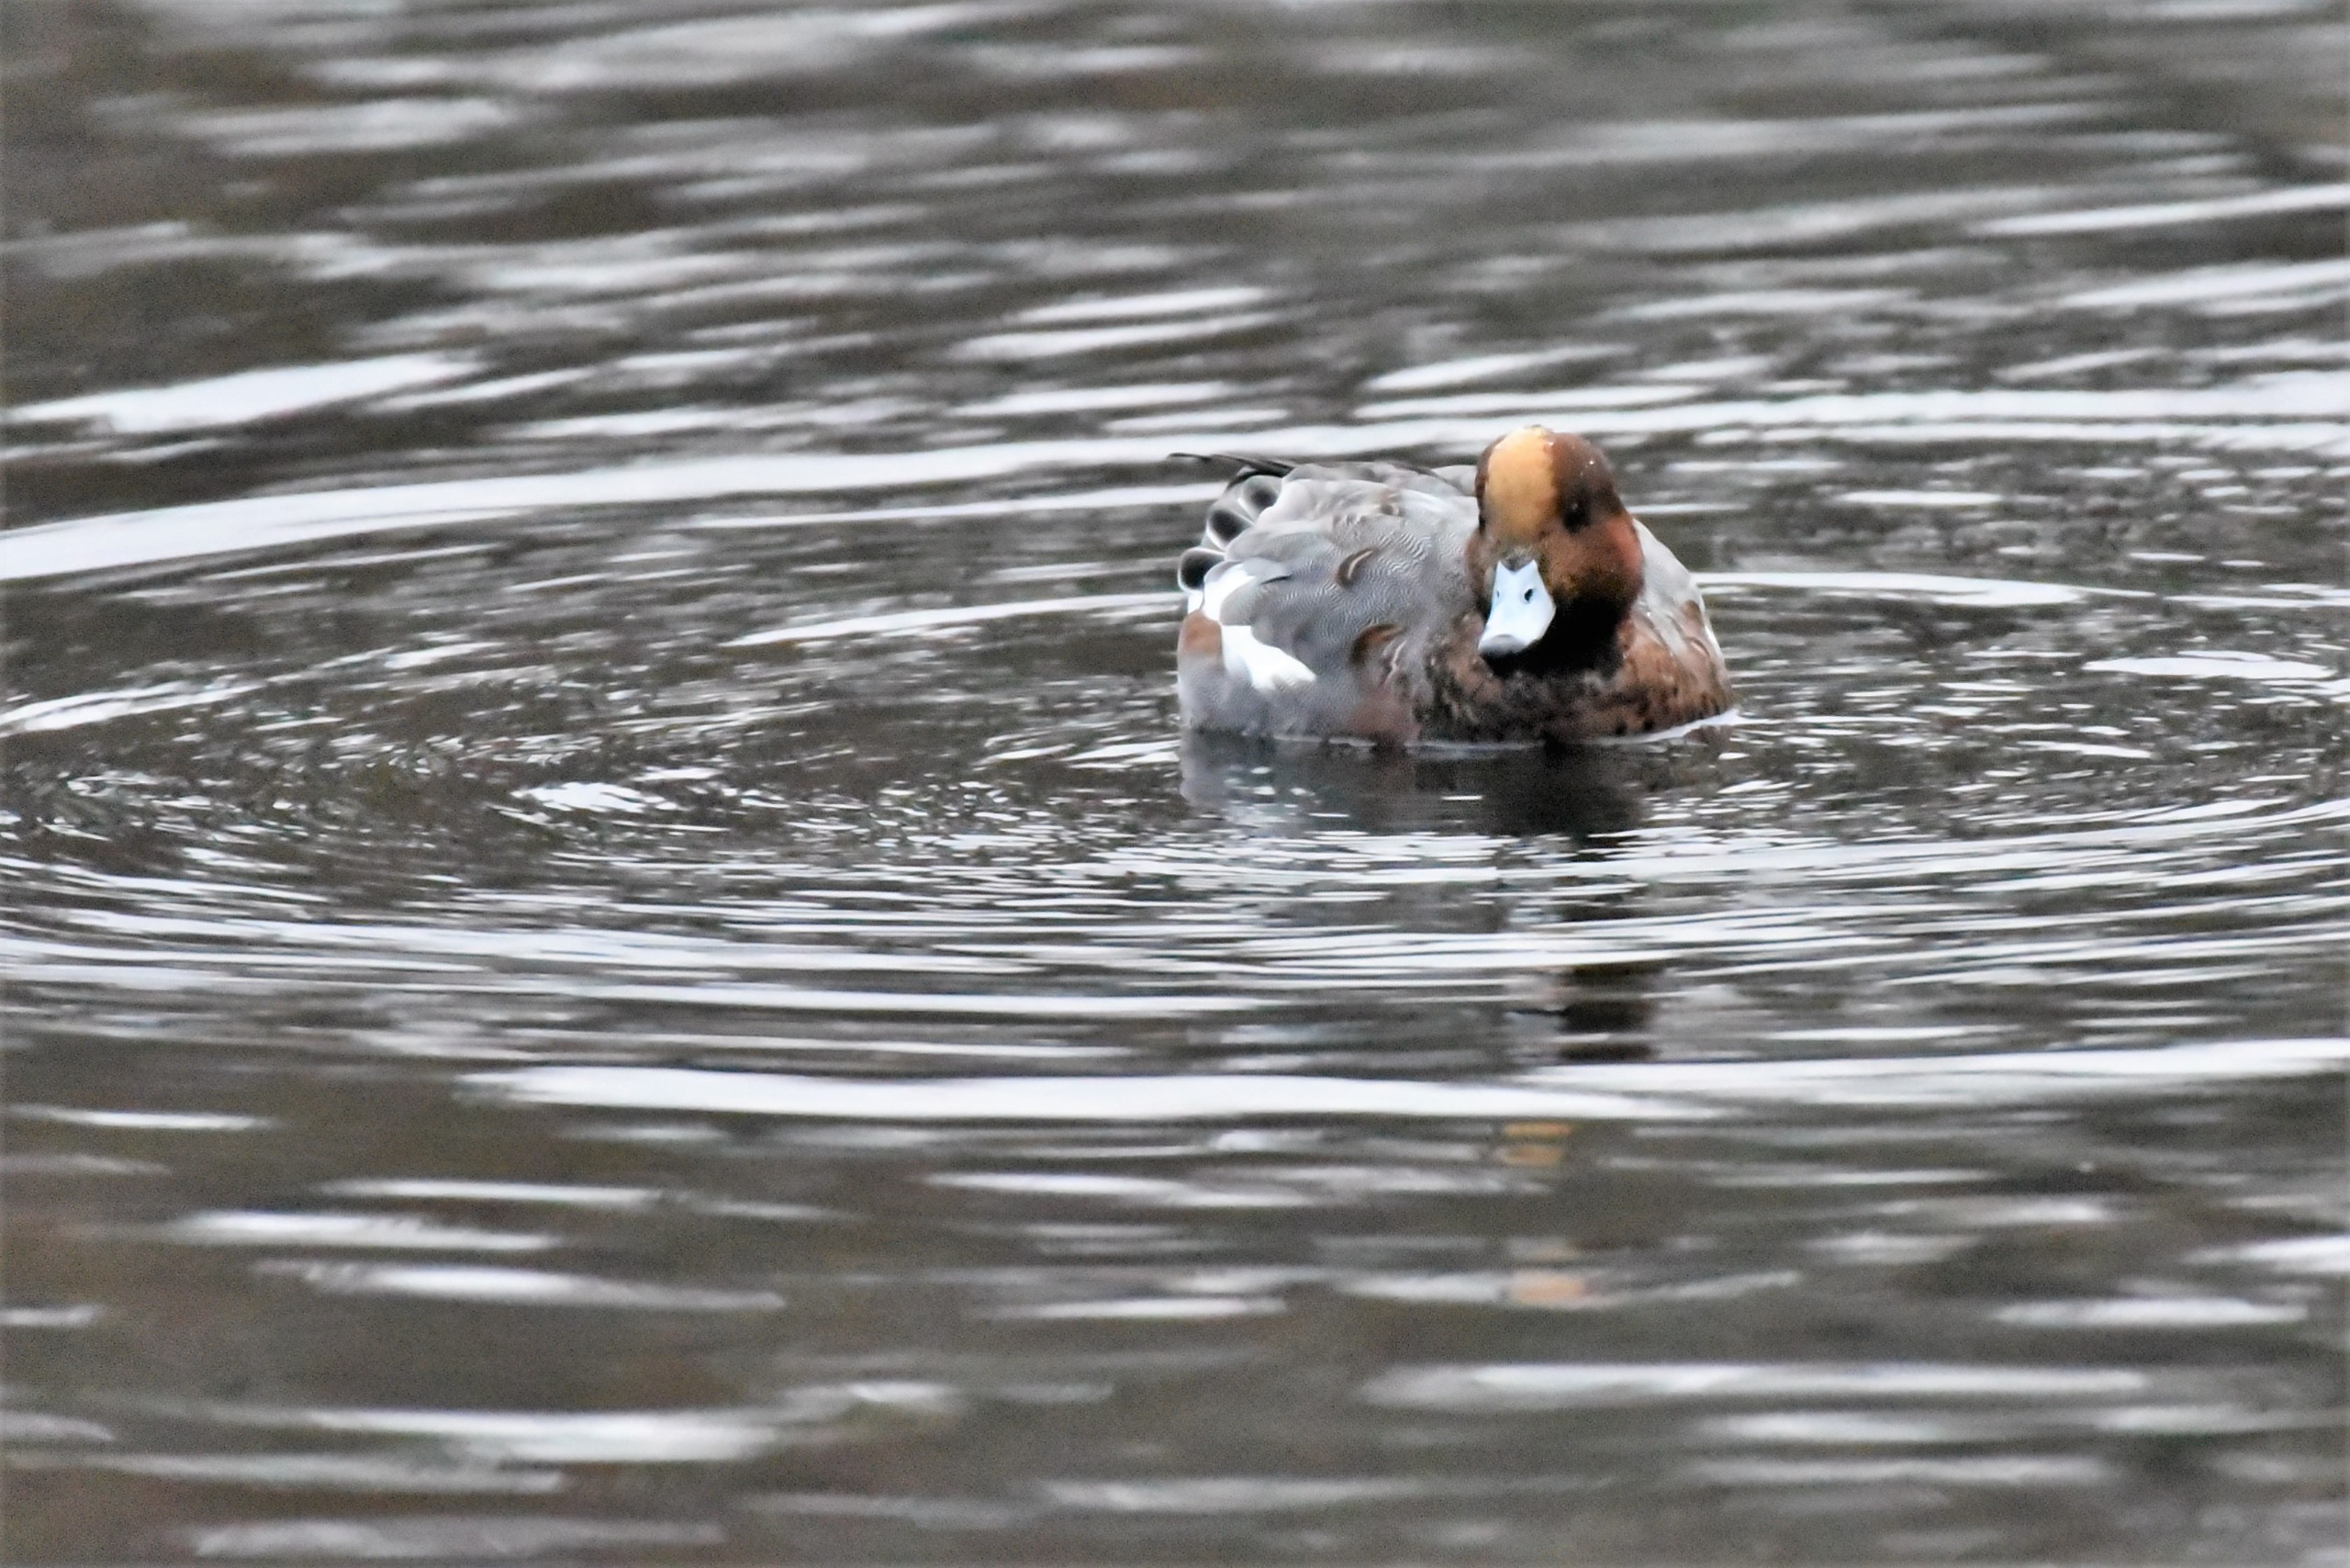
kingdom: Animalia
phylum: Chordata
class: Aves
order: Anseriformes
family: Anatidae
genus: Mareca
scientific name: Mareca penelope
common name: Pibeand
